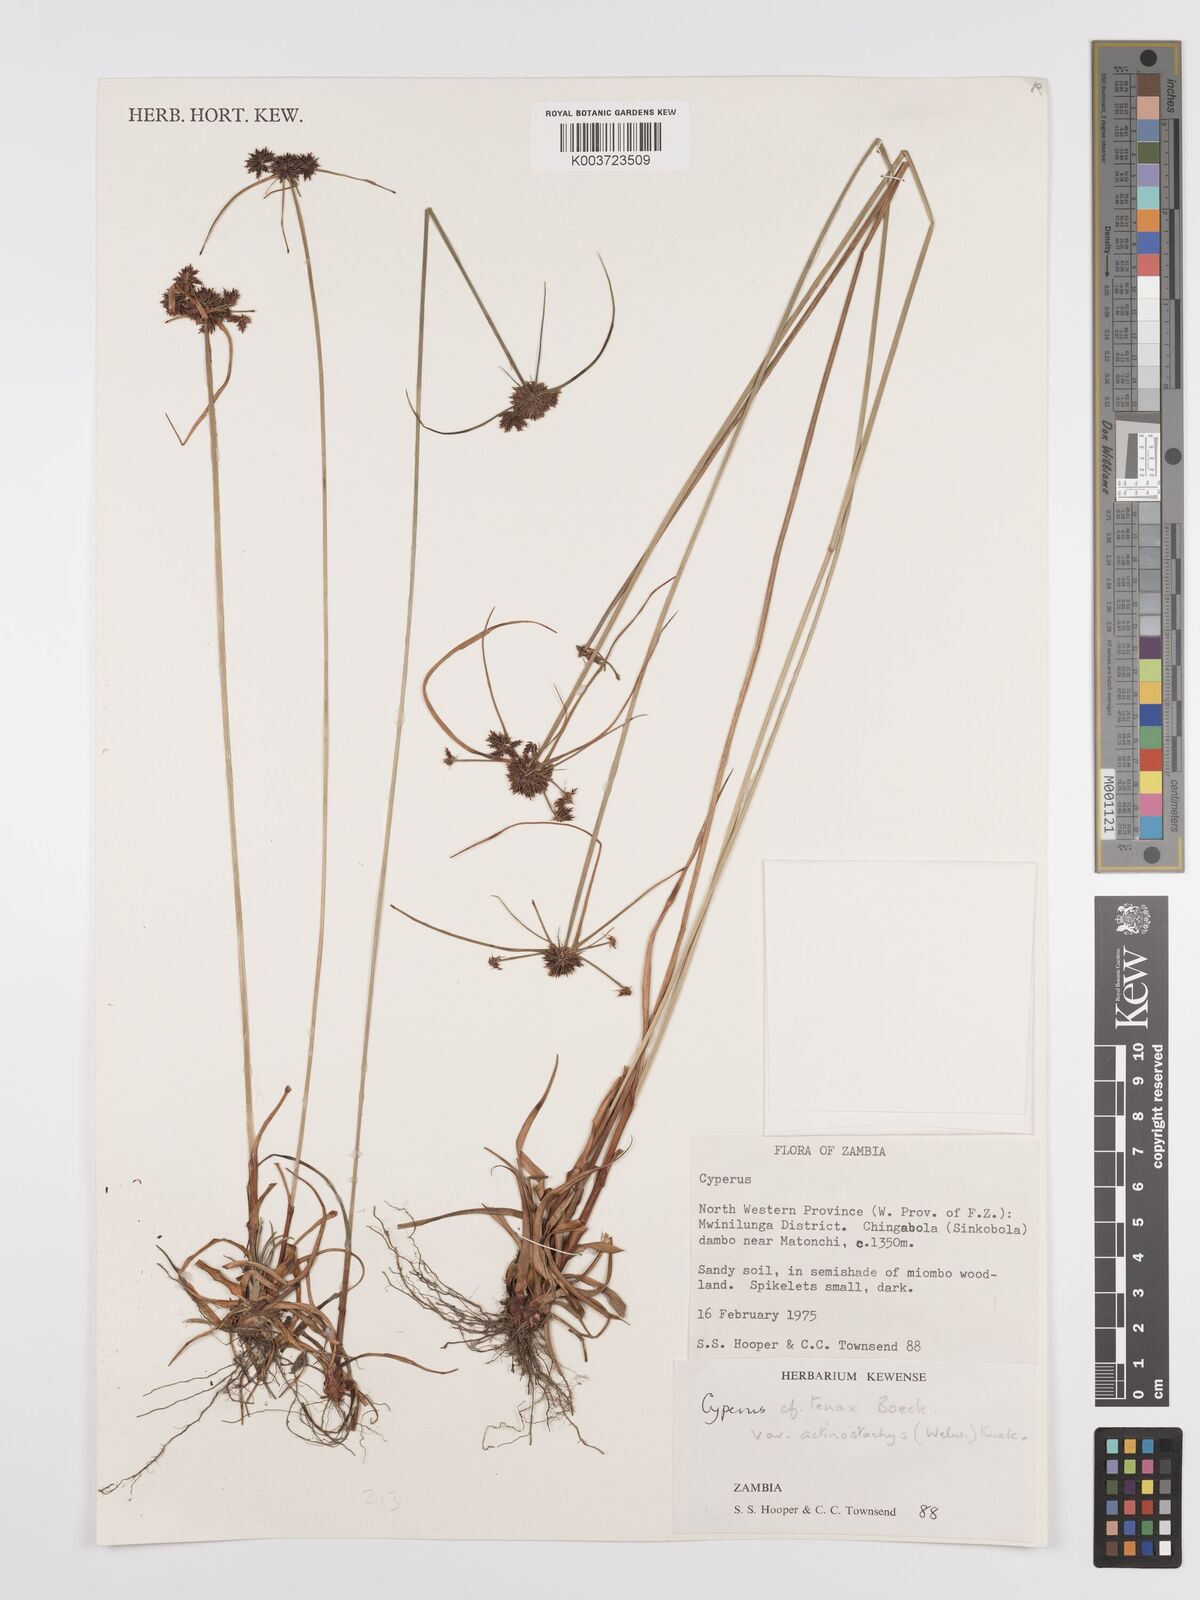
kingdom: Plantae
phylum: Tracheophyta
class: Liliopsida
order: Poales
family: Cyperaceae
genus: Cyperus
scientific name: Cyperus tenax
